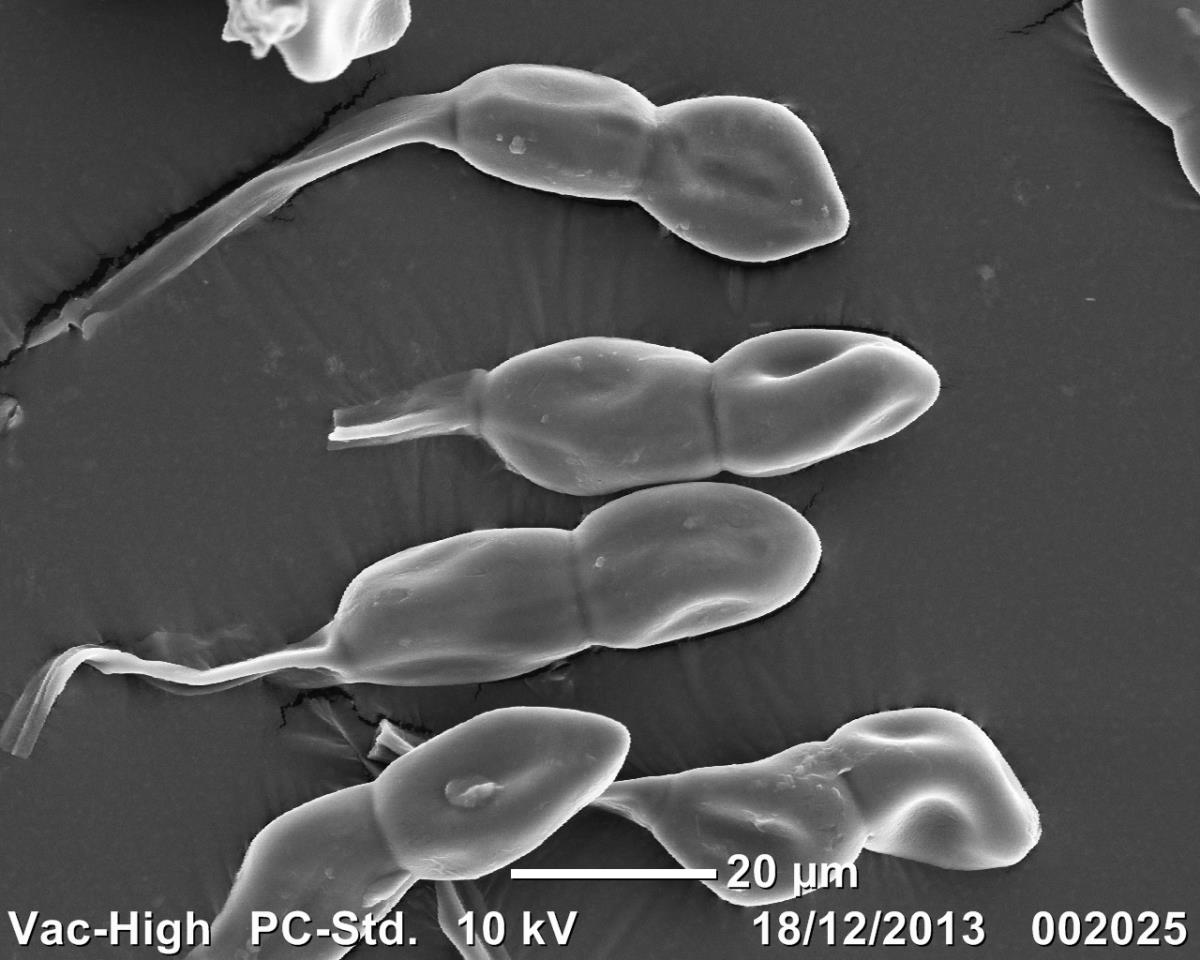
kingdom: Fungi
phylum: Basidiomycota
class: Pucciniomycetes
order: Pucciniales
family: Pucciniaceae
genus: Puccinia
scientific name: Puccinia euphrasiana
